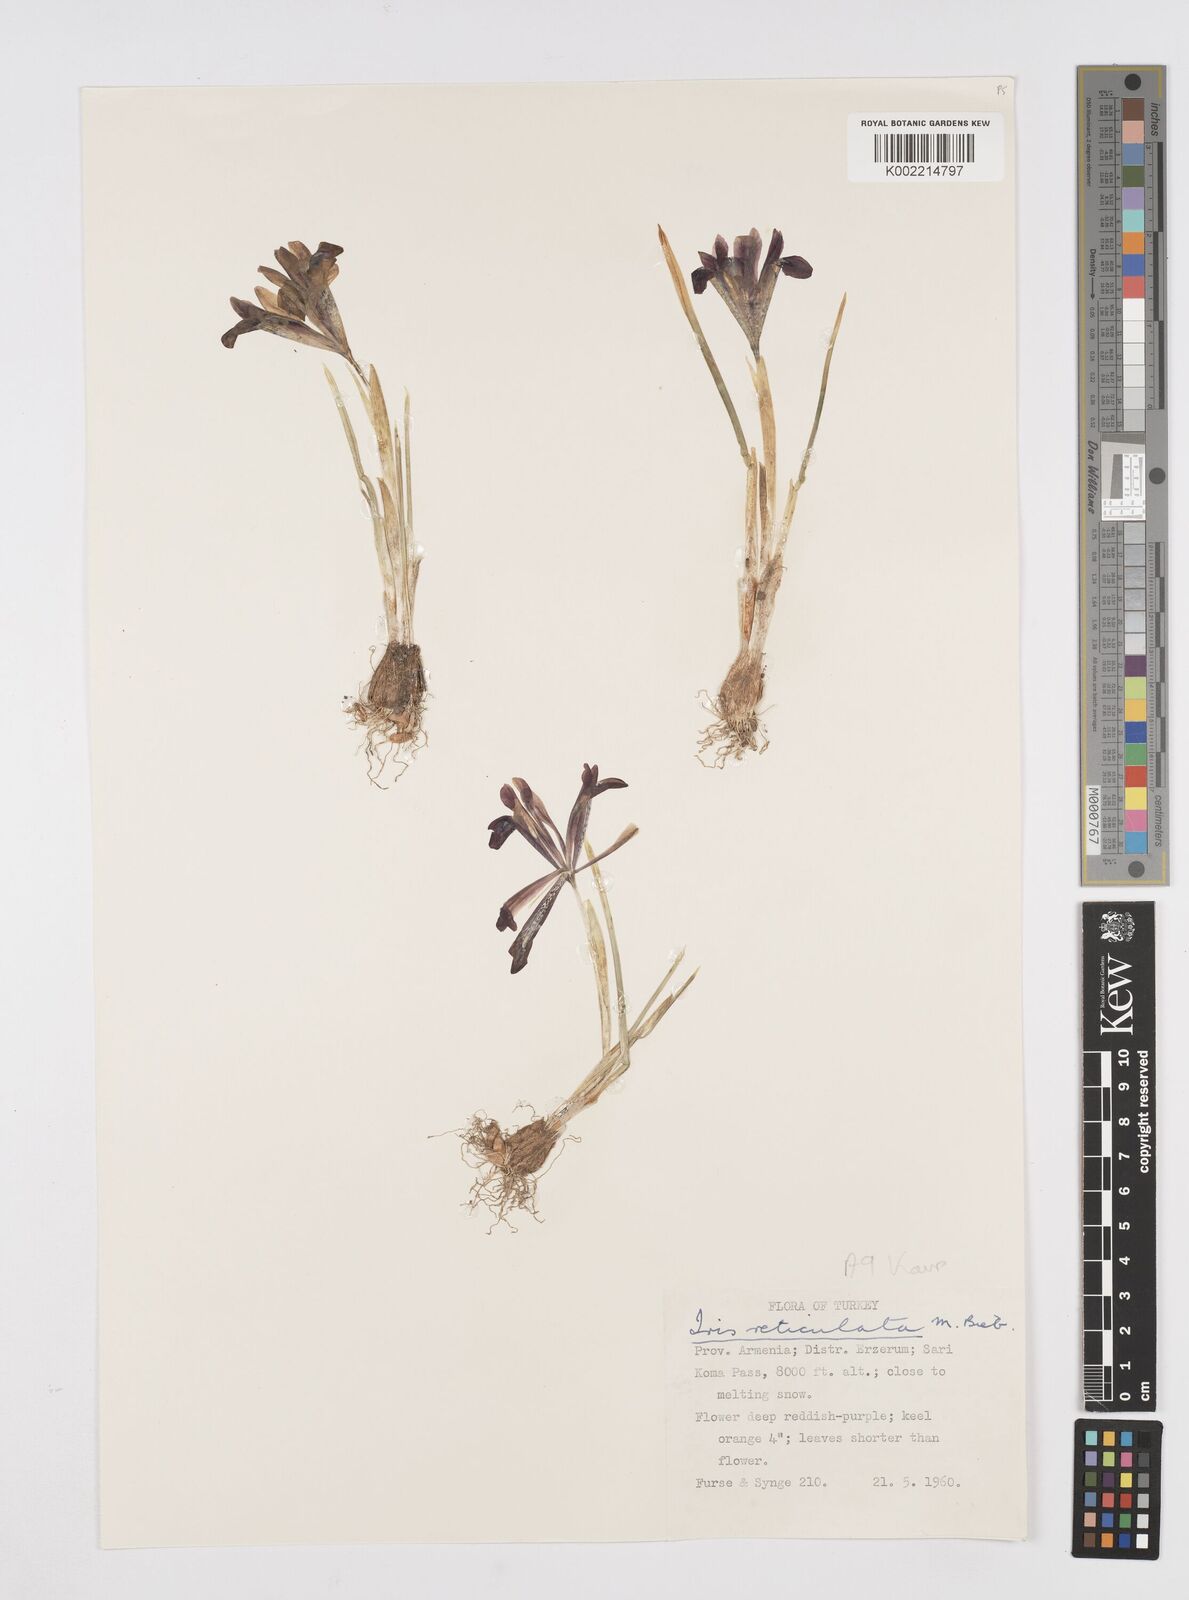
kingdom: Plantae
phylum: Tracheophyta
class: Liliopsida
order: Asparagales
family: Iridaceae
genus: Iris
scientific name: Iris reticulata
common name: Netted iris
